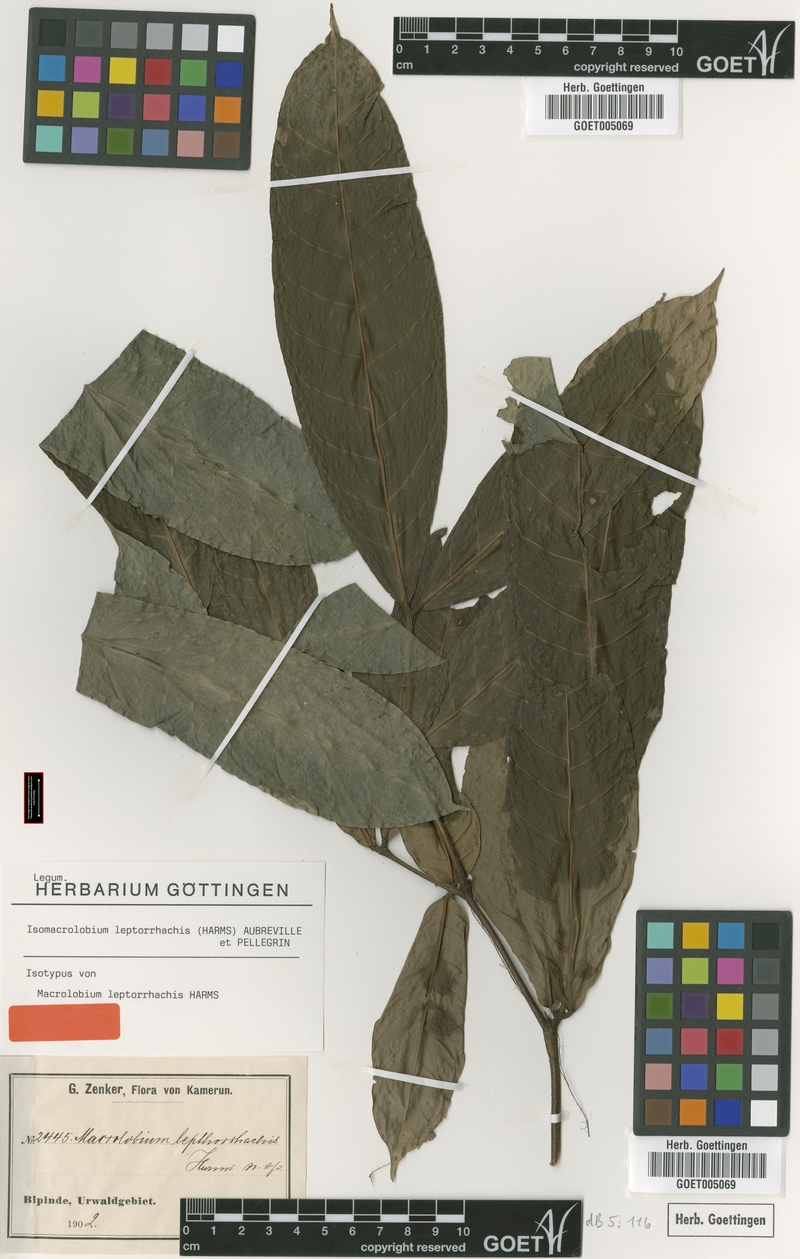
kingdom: Plantae
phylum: Tracheophyta
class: Magnoliopsida
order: Fabales
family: Fabaceae
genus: Englerodendron
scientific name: Englerodendron leptorrhachis
